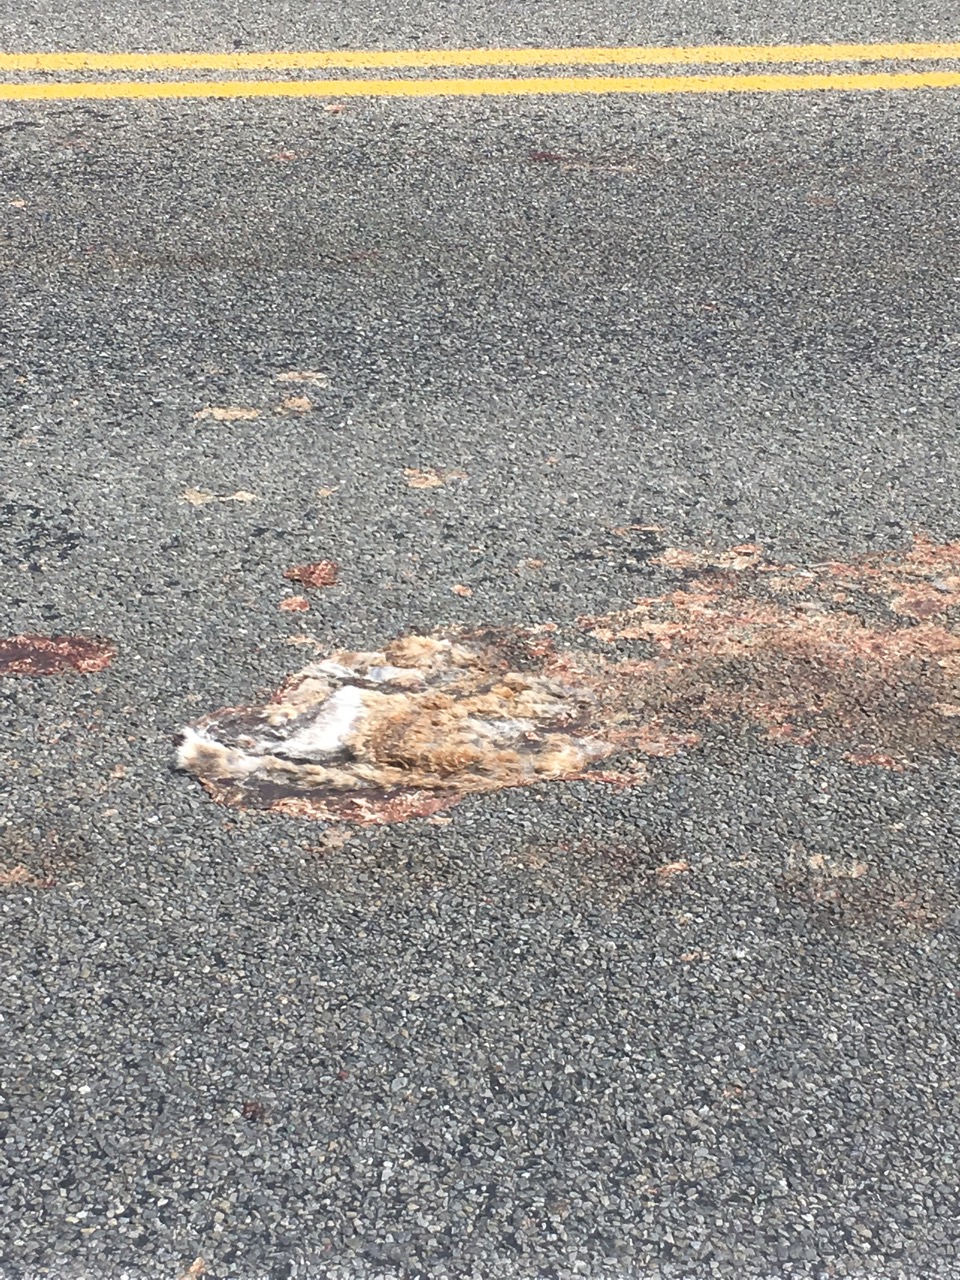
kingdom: Animalia
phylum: Chordata
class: Mammalia
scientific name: Mammalia
